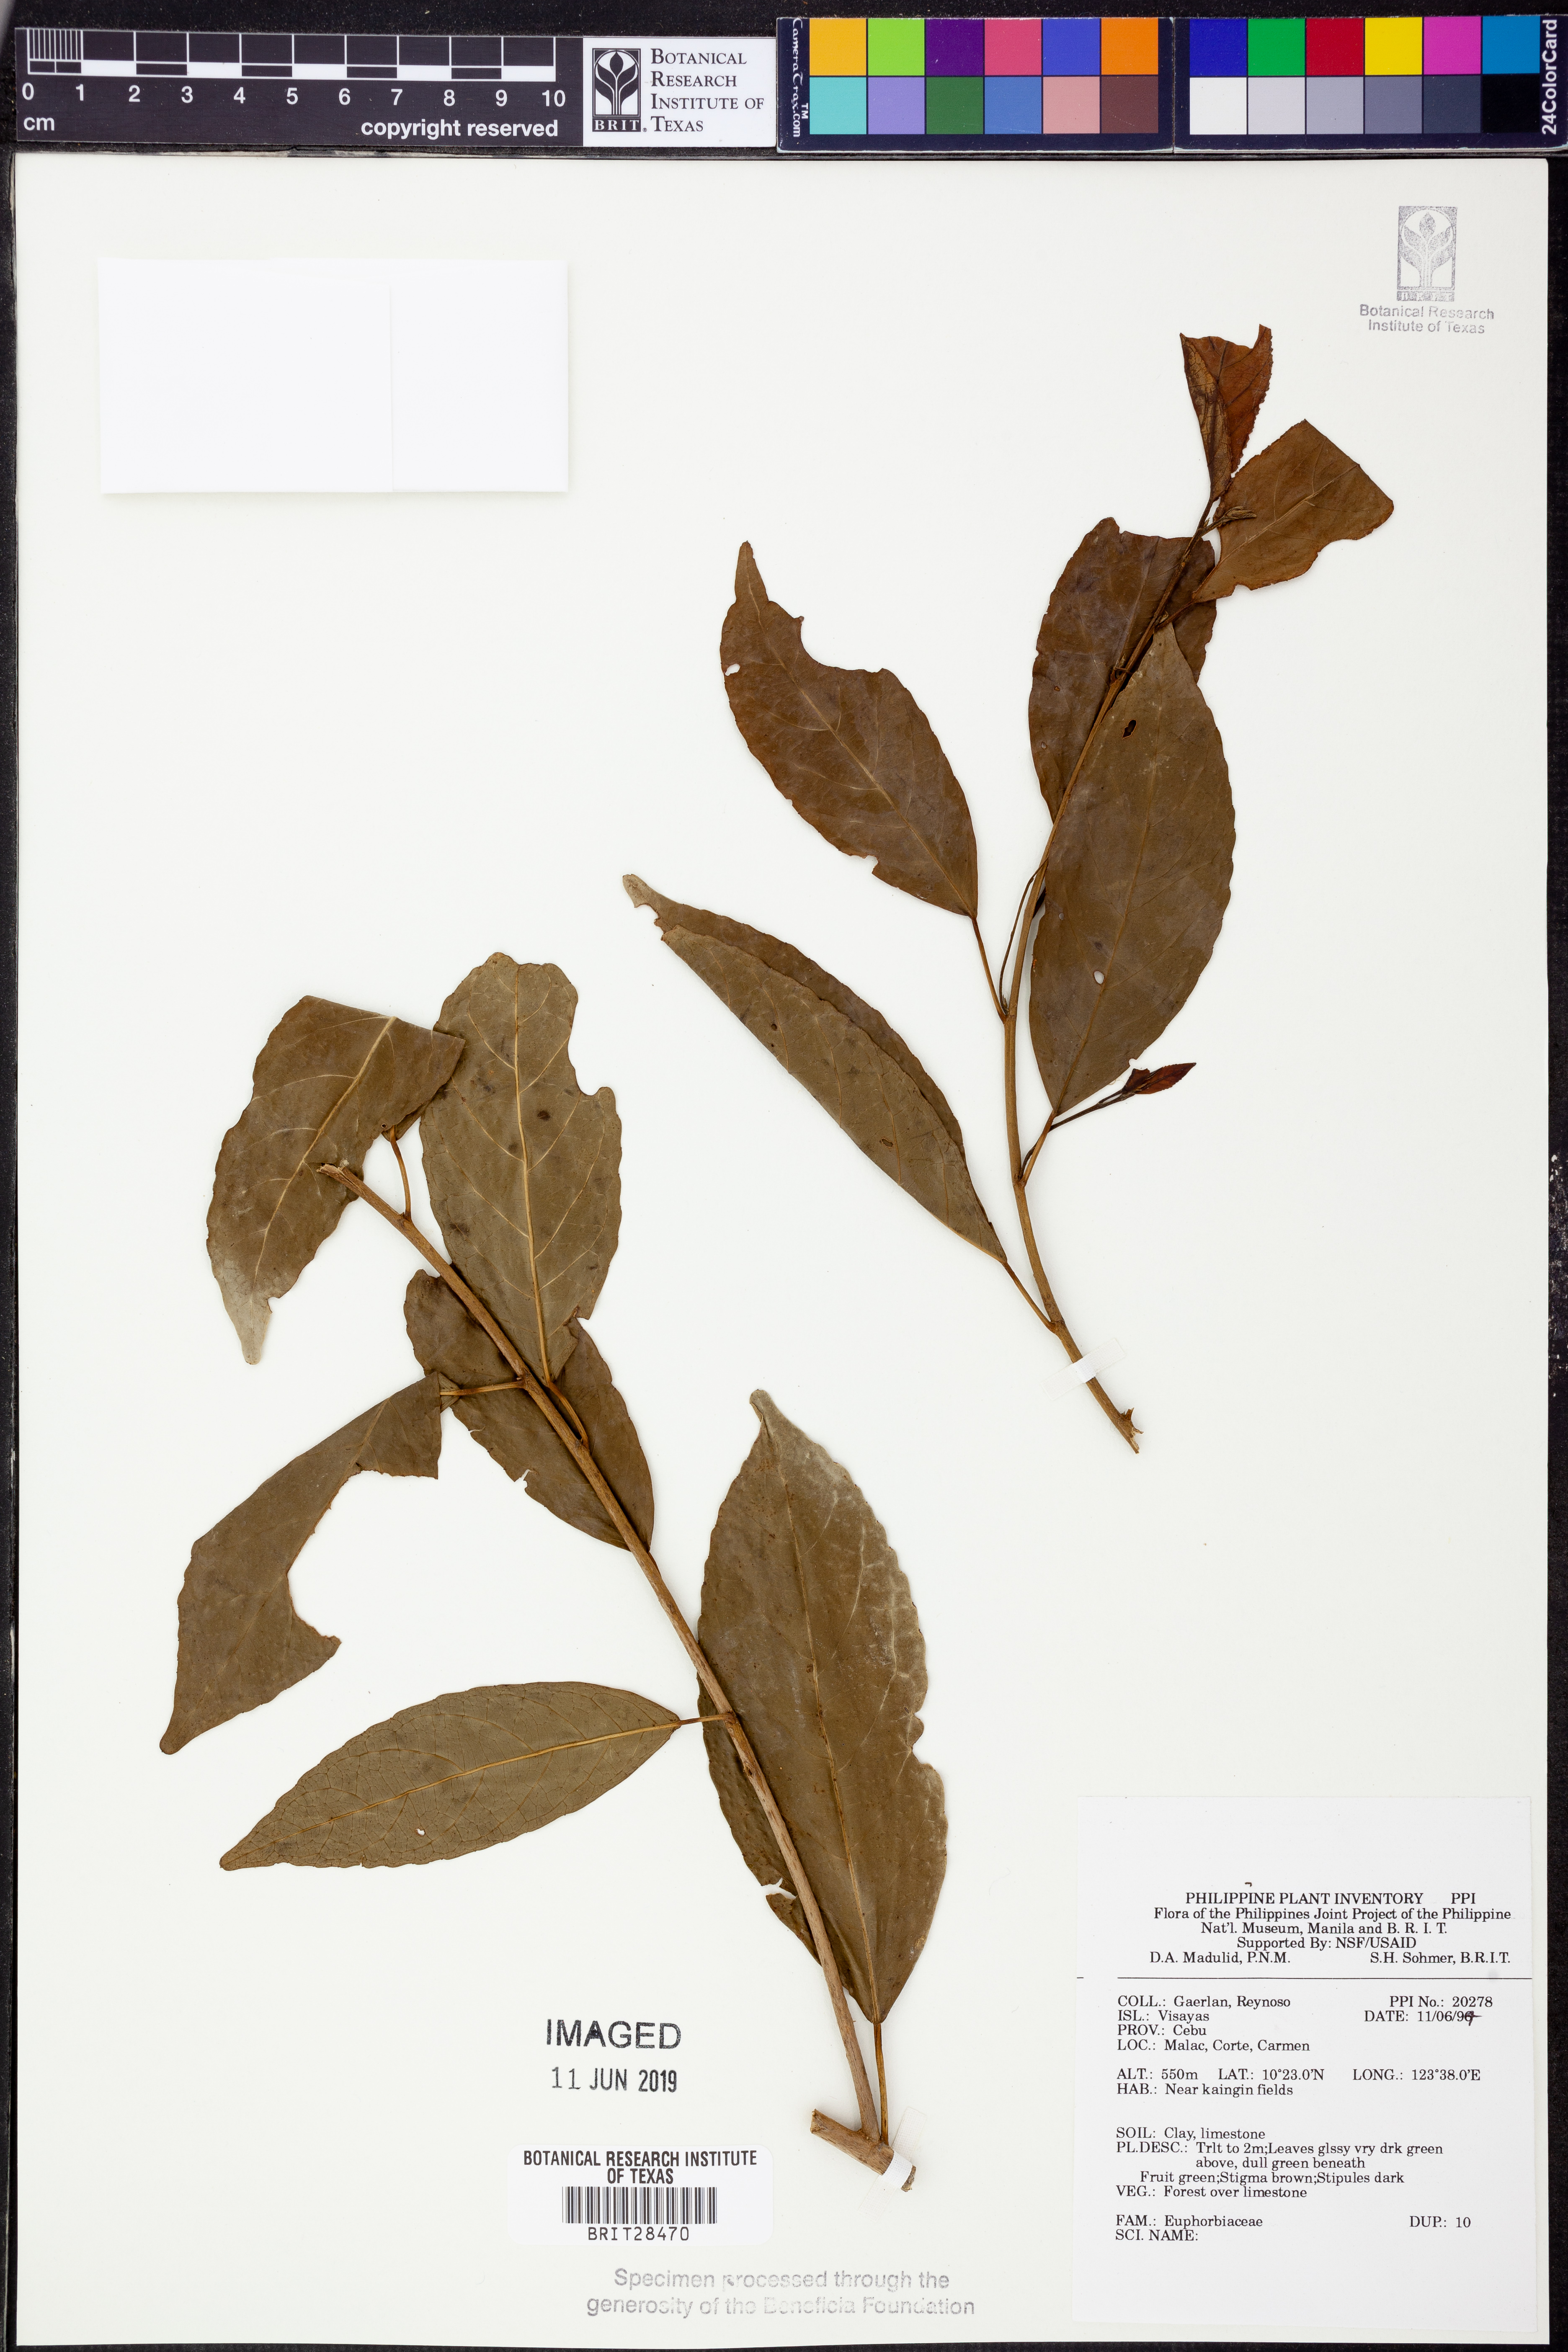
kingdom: Plantae
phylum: Tracheophyta
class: Magnoliopsida
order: Malpighiales
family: Euphorbiaceae
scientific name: Euphorbiaceae
